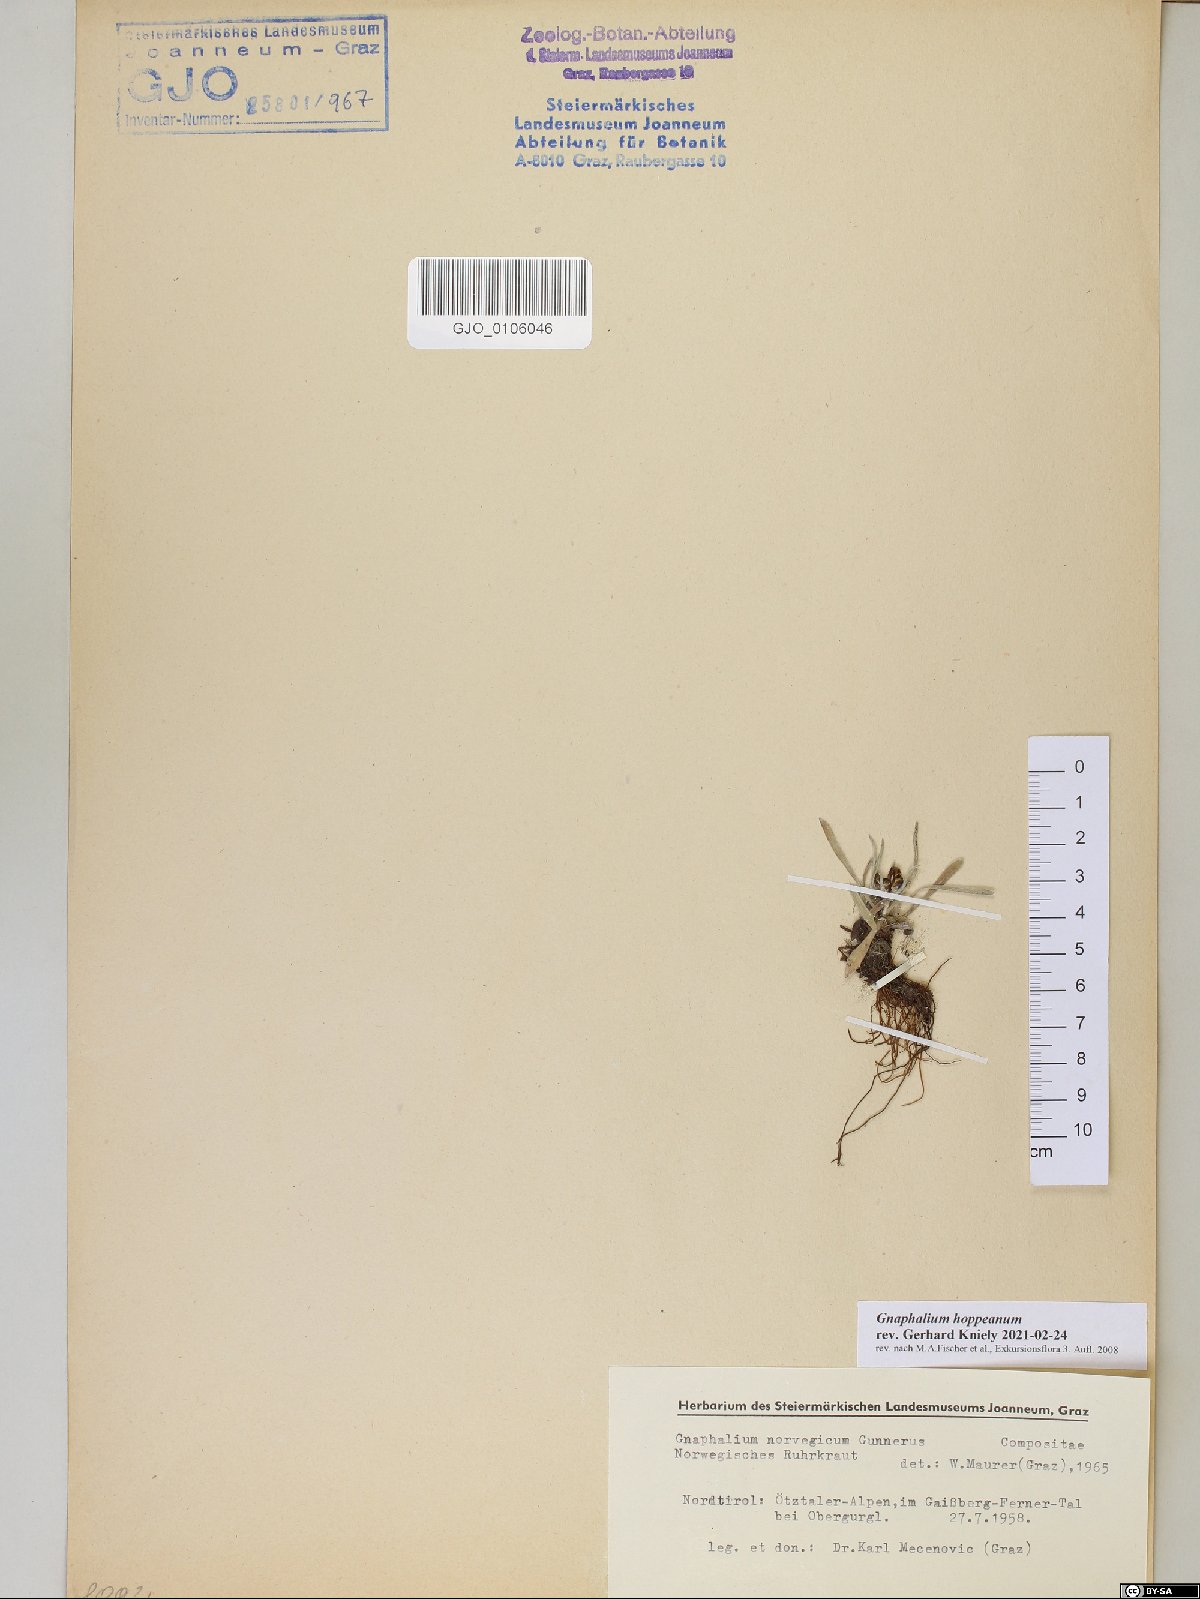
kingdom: Plantae
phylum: Tracheophyta
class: Magnoliopsida
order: Asterales
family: Asteraceae
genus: Omalotheca
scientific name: Omalotheca hoppeana
